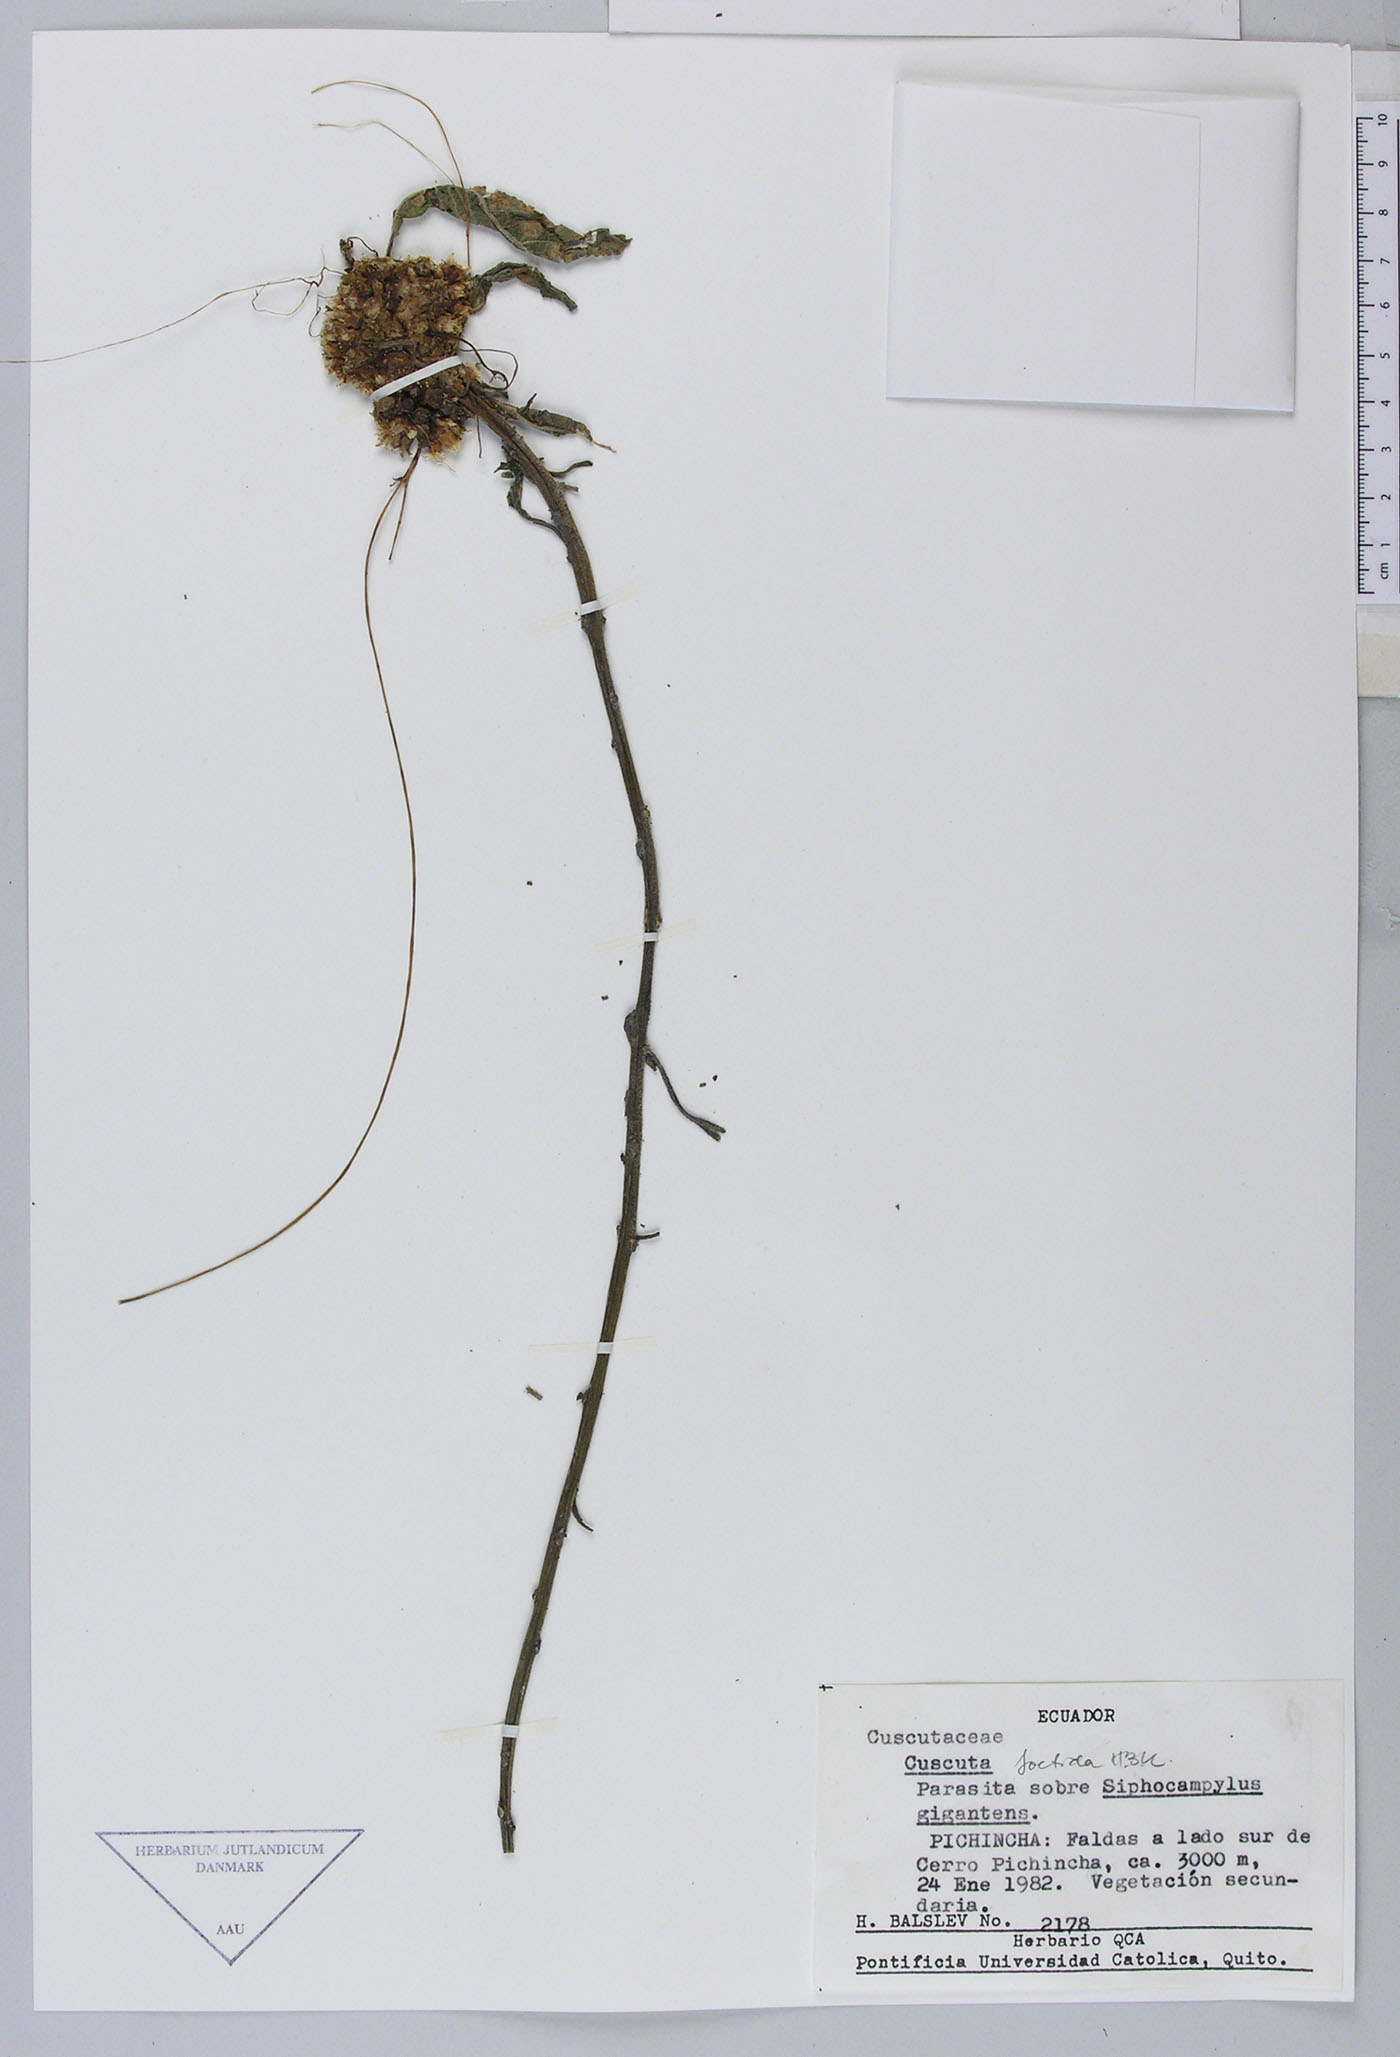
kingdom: Plantae
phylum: Tracheophyta
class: Magnoliopsida
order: Solanales
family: Convolvulaceae
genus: Cuscuta
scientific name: Cuscuta foetida
